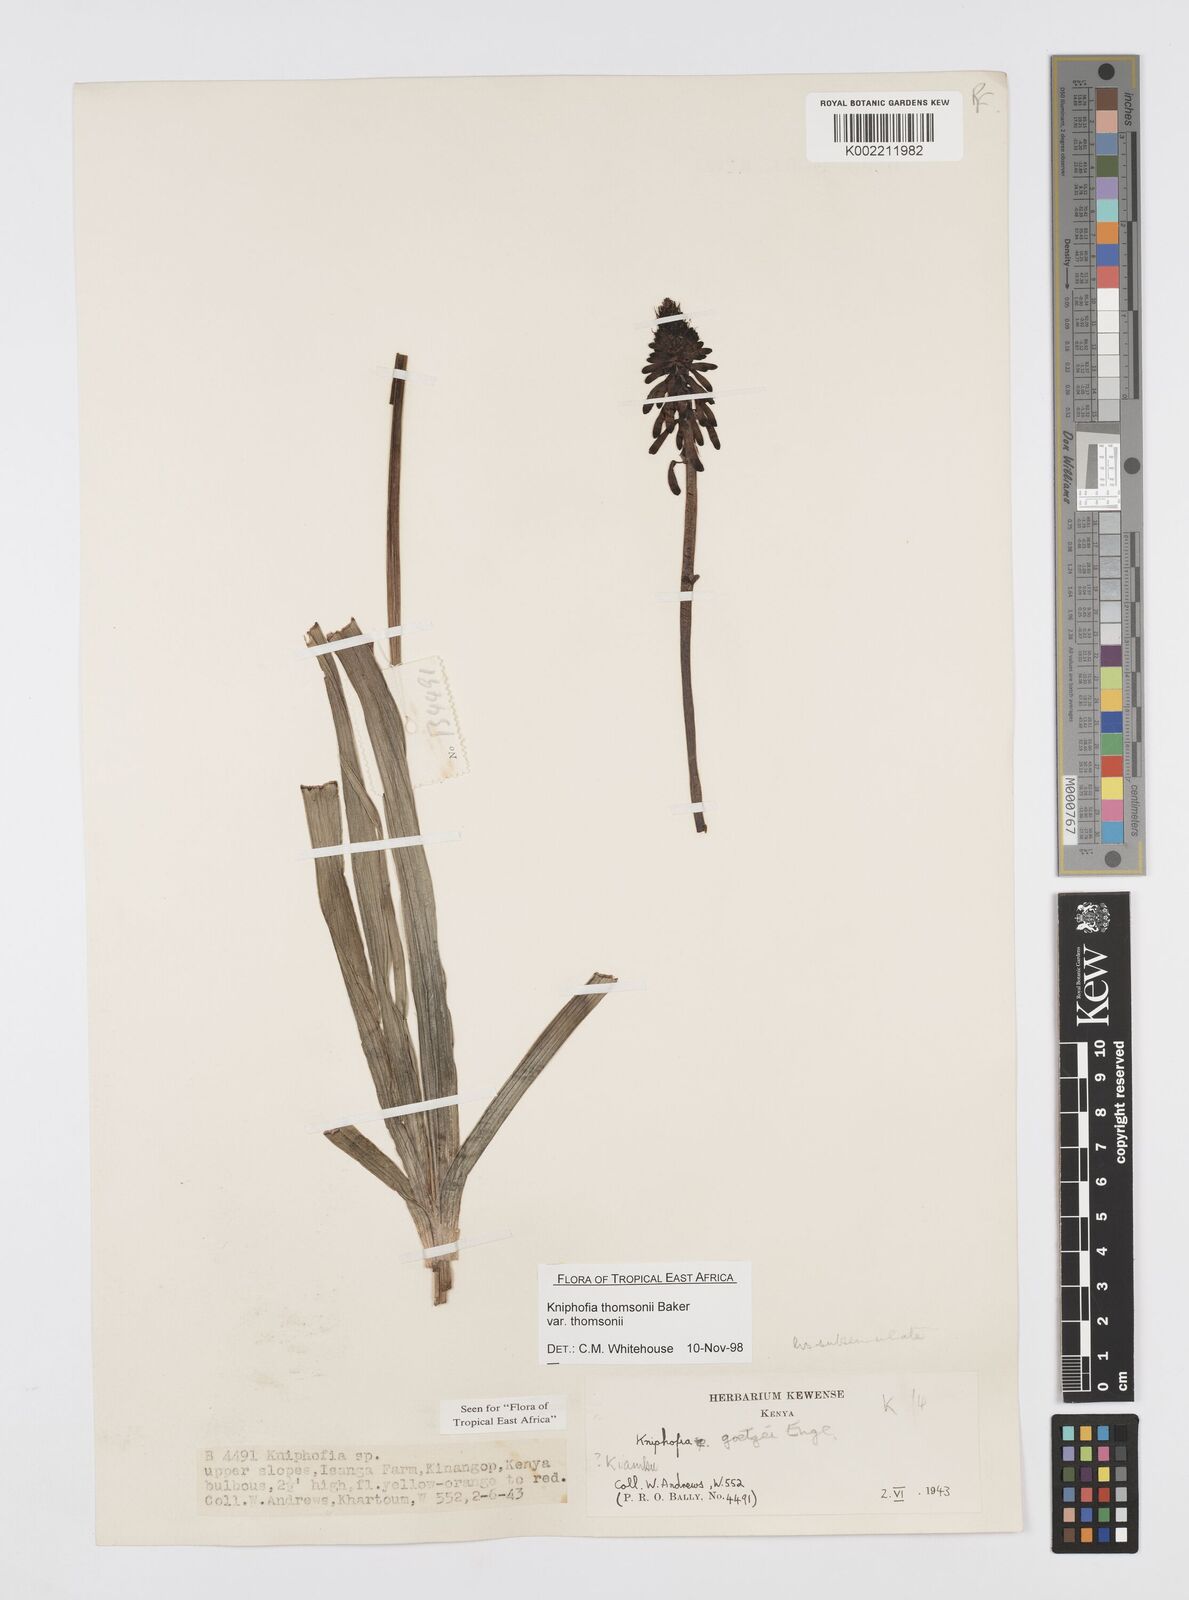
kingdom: Plantae
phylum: Tracheophyta
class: Liliopsida
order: Asparagales
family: Asphodelaceae
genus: Kniphofia
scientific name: Kniphofia thomsonii
